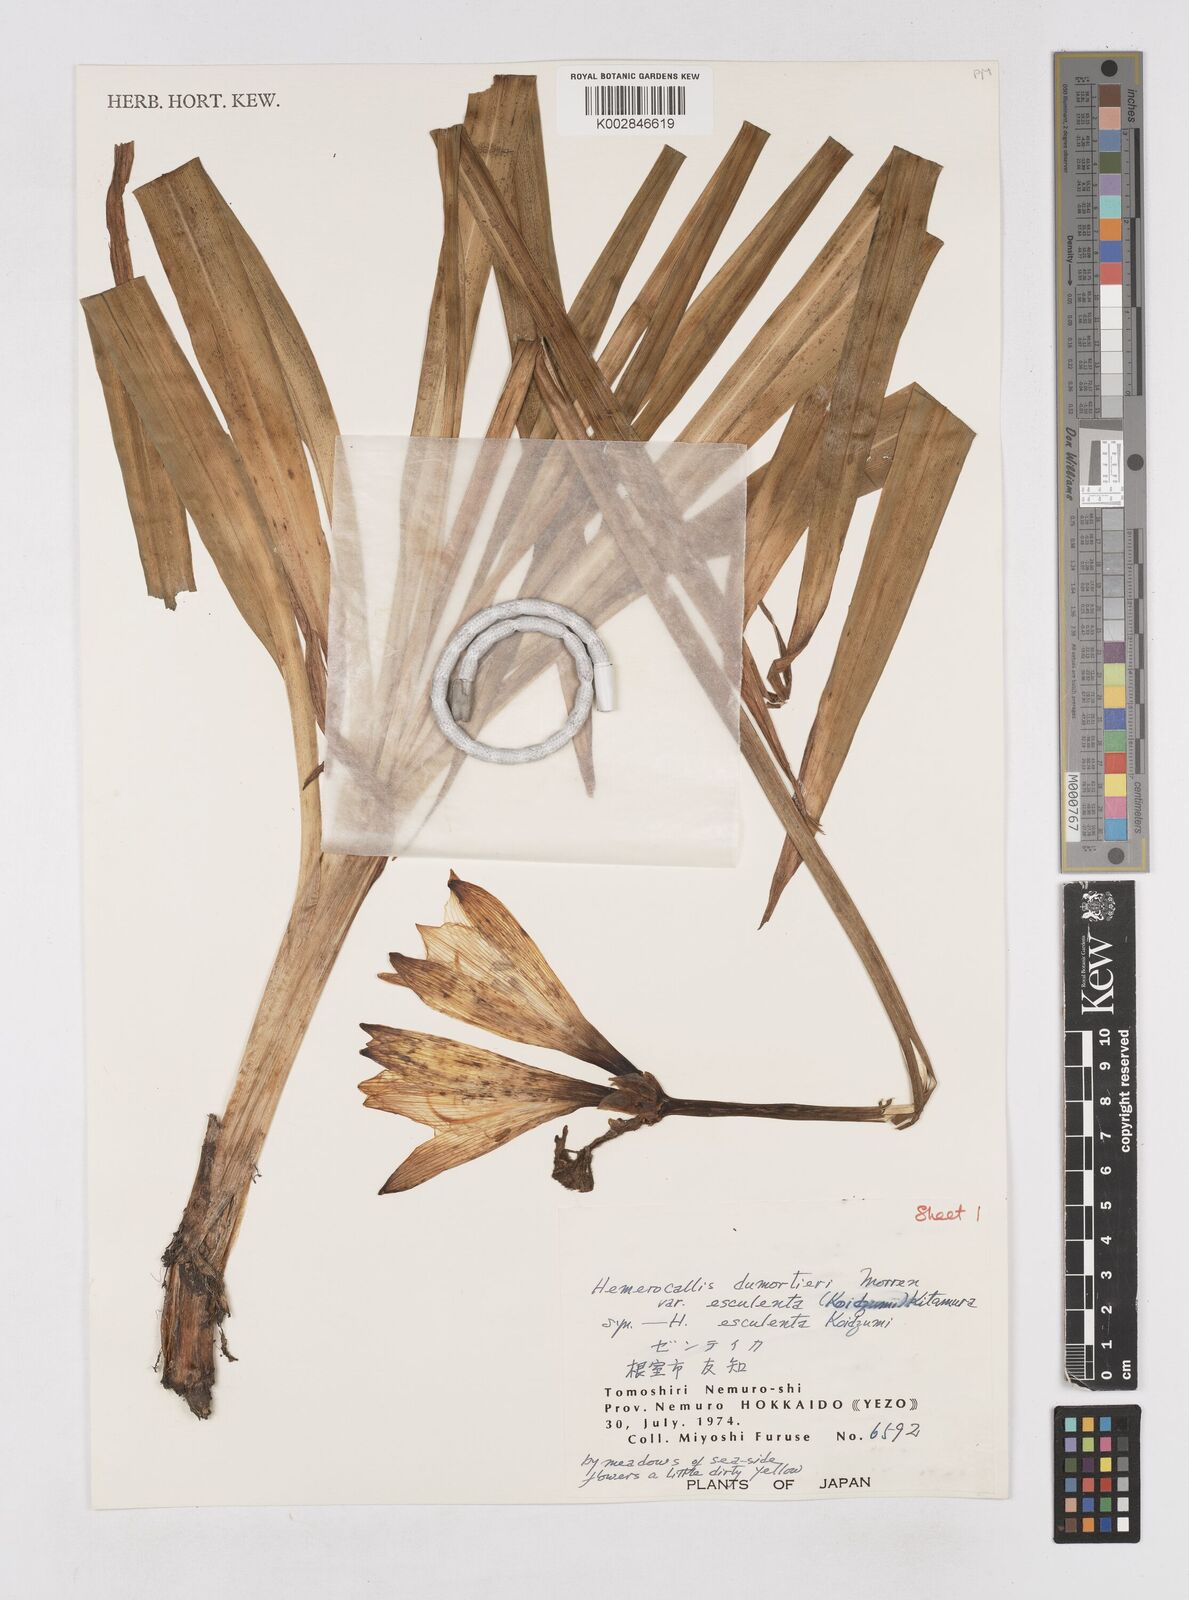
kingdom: Plantae
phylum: Tracheophyta
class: Liliopsida
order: Asparagales
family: Asphodelaceae
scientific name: Asphodelaceae
